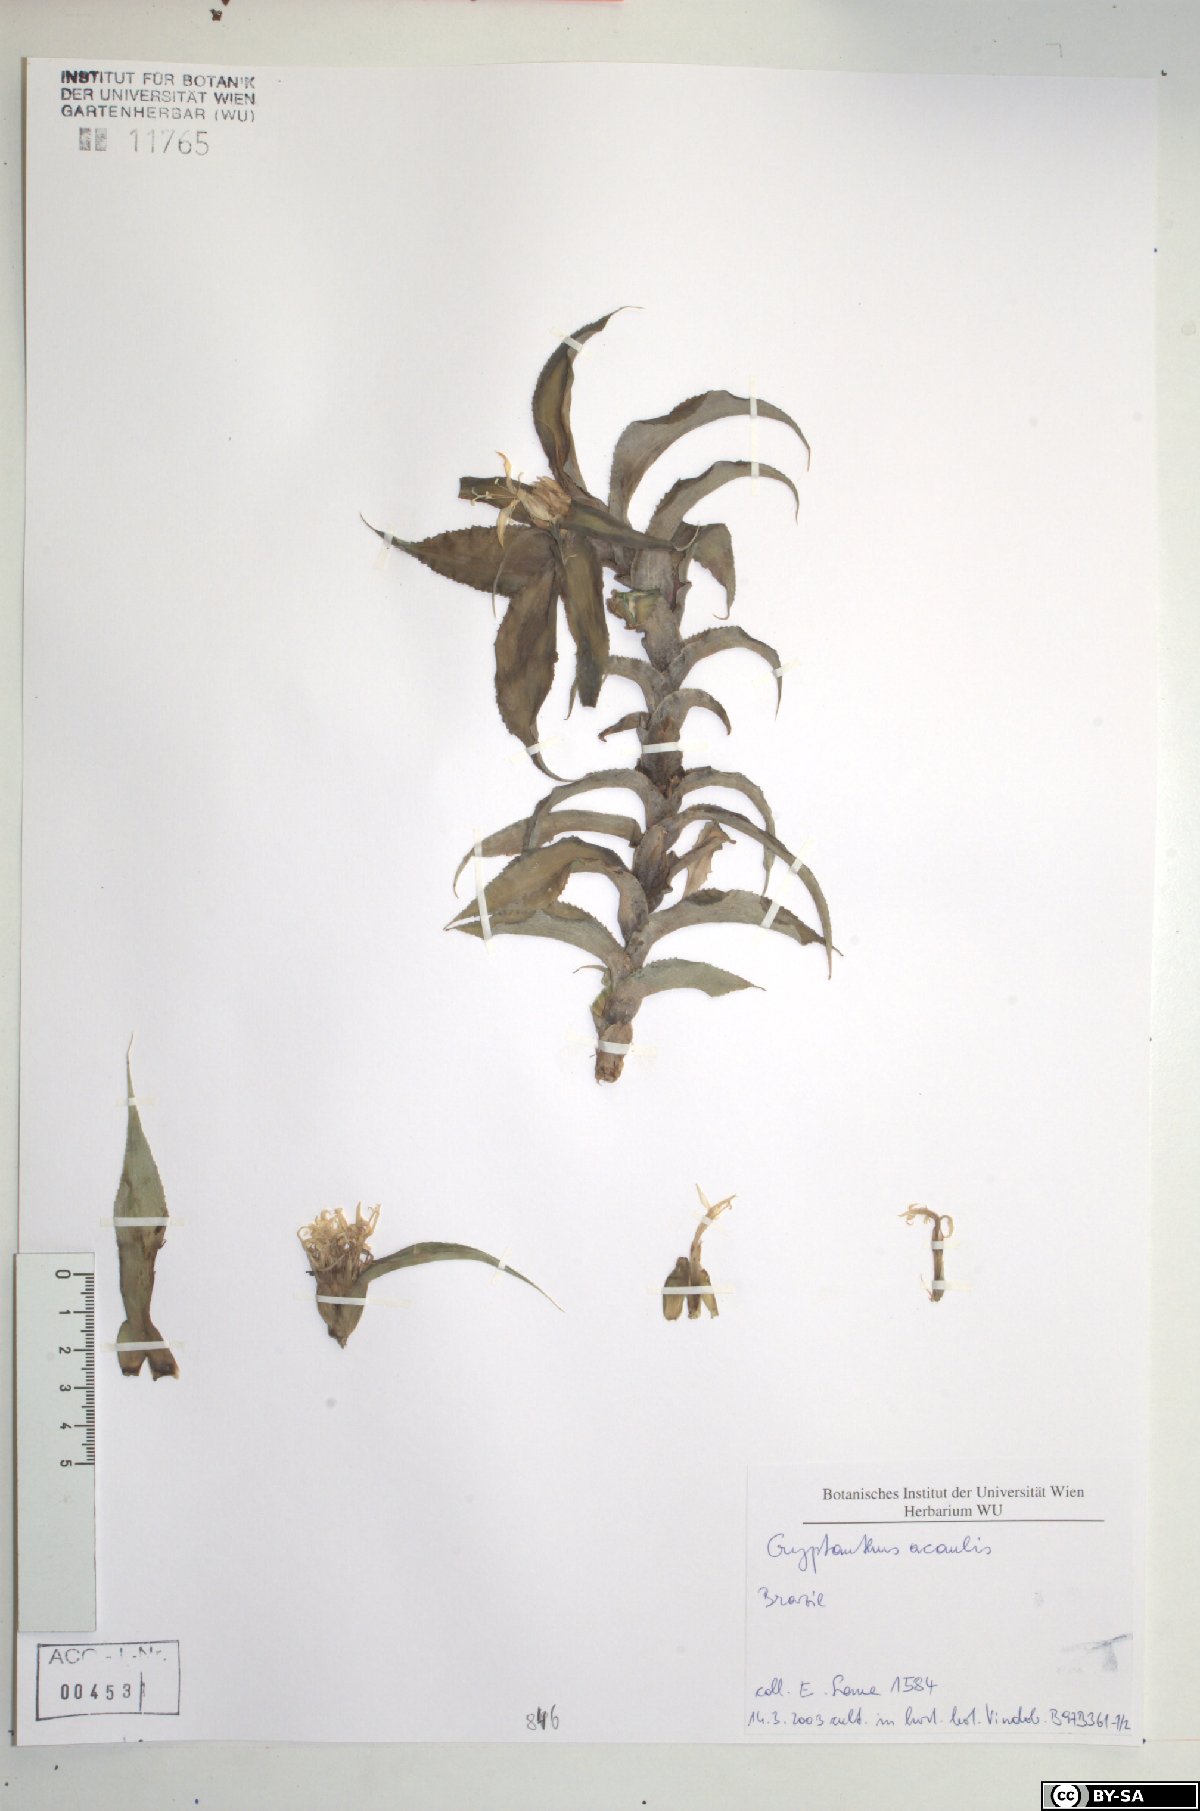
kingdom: Plantae
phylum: Tracheophyta
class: Liliopsida
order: Poales
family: Bromeliaceae
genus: Cryptanthus
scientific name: Cryptanthus acaulis
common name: Starfishplant
